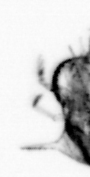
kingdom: Animalia
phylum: Arthropoda
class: Copepoda
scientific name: Copepoda
